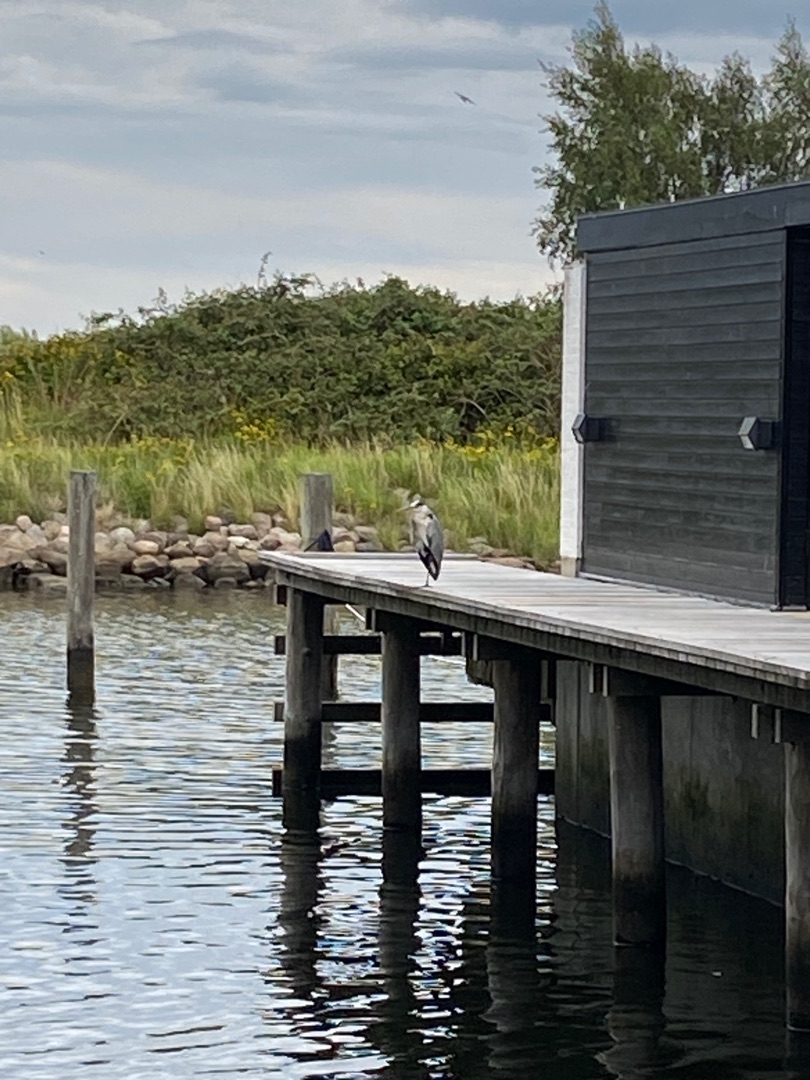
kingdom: Animalia
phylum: Chordata
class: Aves
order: Pelecaniformes
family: Ardeidae
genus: Ardea
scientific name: Ardea cinerea
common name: Fiskehejre
